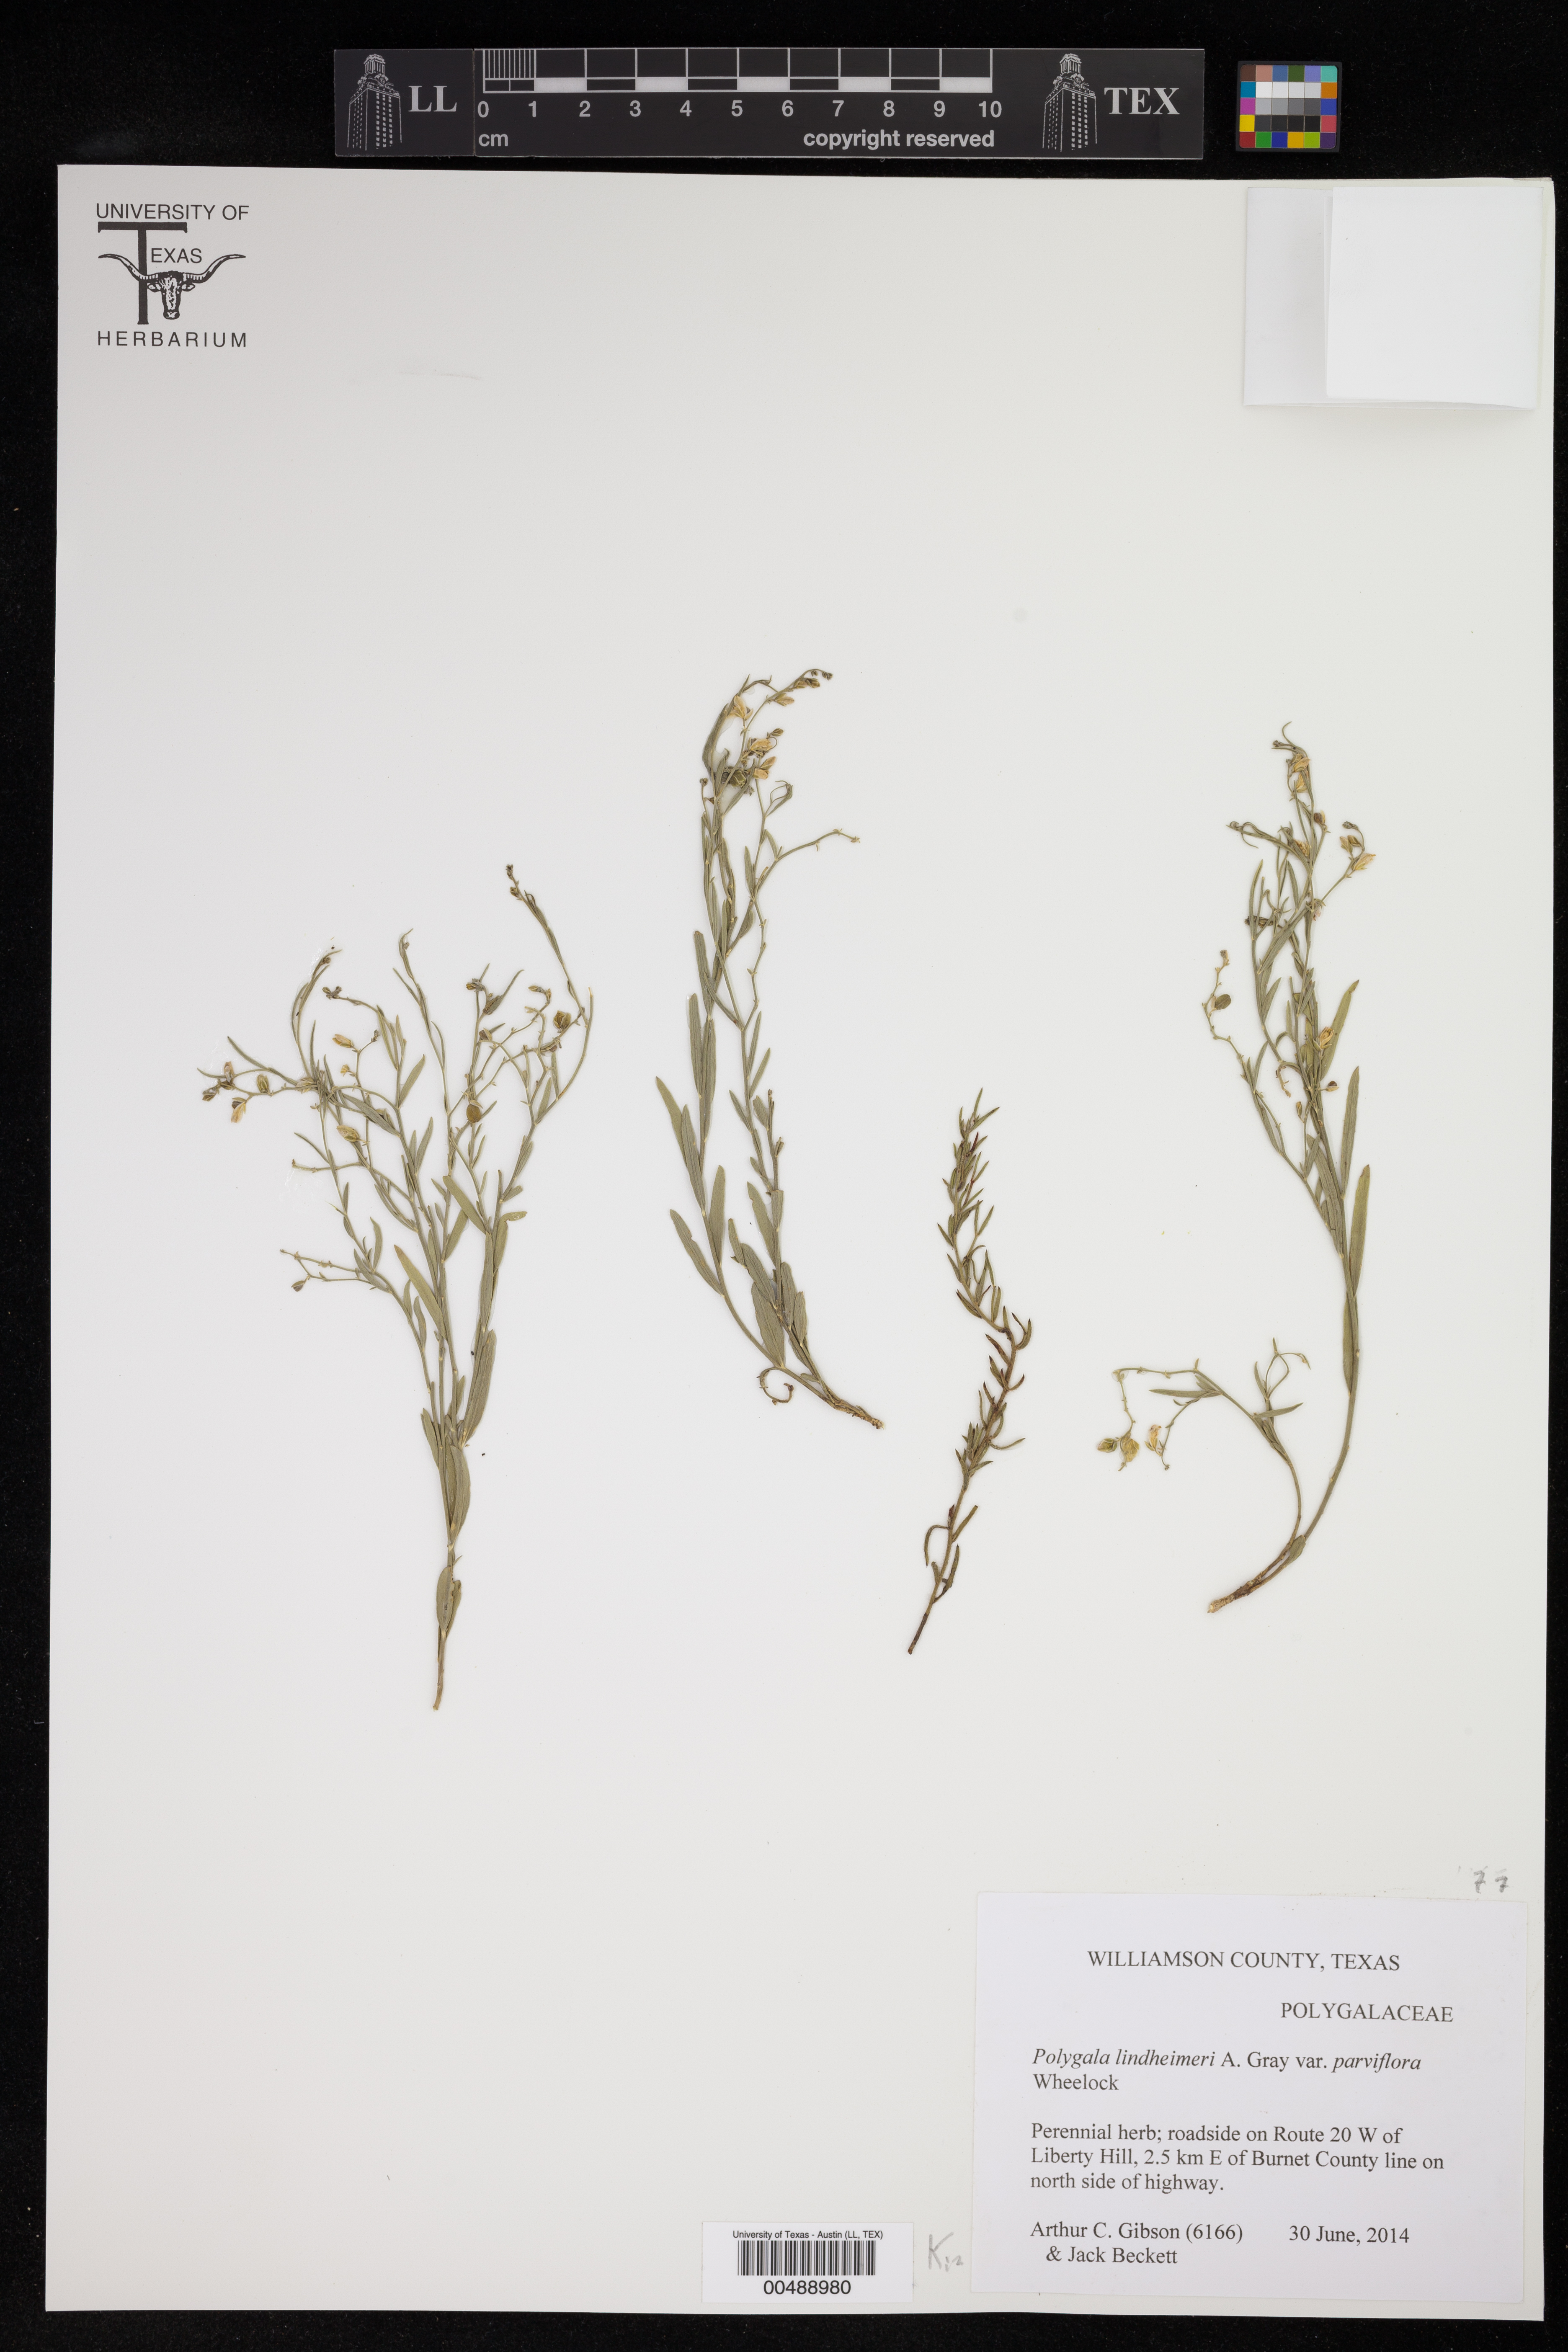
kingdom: Plantae
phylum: Tracheophyta
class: Magnoliopsida
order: Fabales
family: Polygalaceae
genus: Rhinotropis
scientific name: Rhinotropis lindheimeri
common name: Shrubby milkwort
